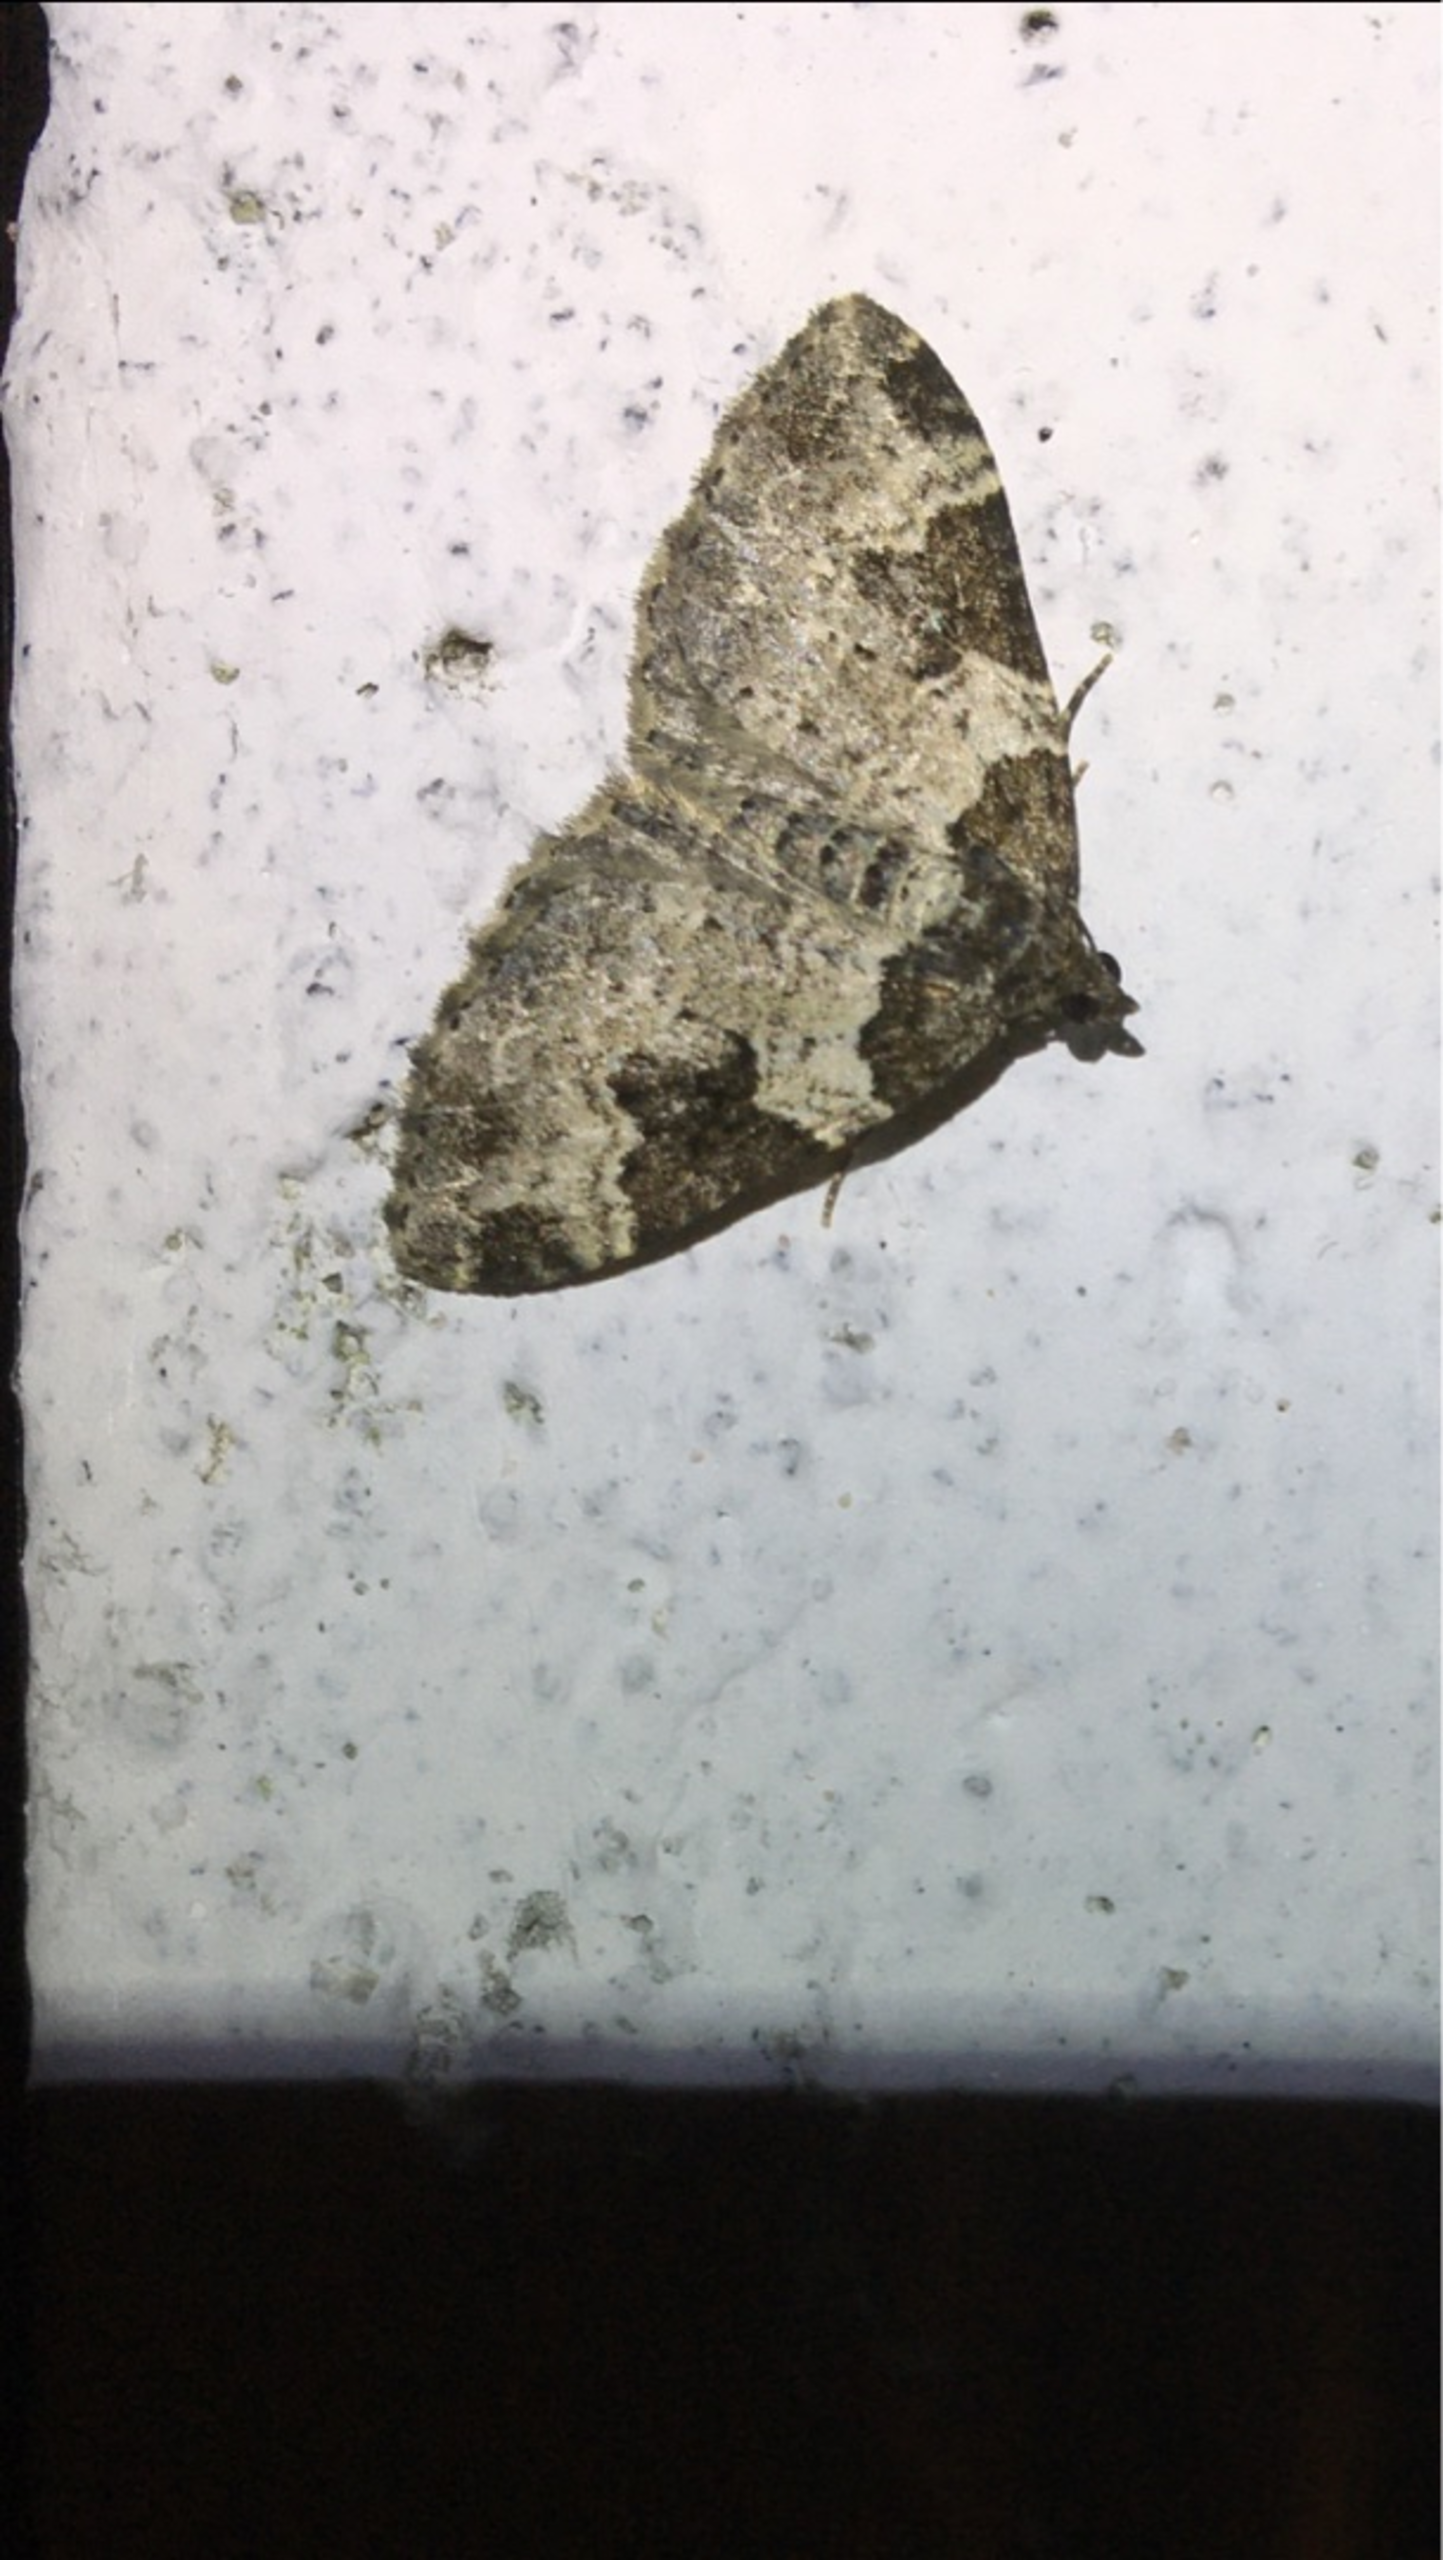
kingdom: Animalia
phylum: Arthropoda
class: Insecta
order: Lepidoptera
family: Geometridae
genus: Xanthorhoe
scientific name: Xanthorhoe fluctuata
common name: Sortbæltet bladmåler
